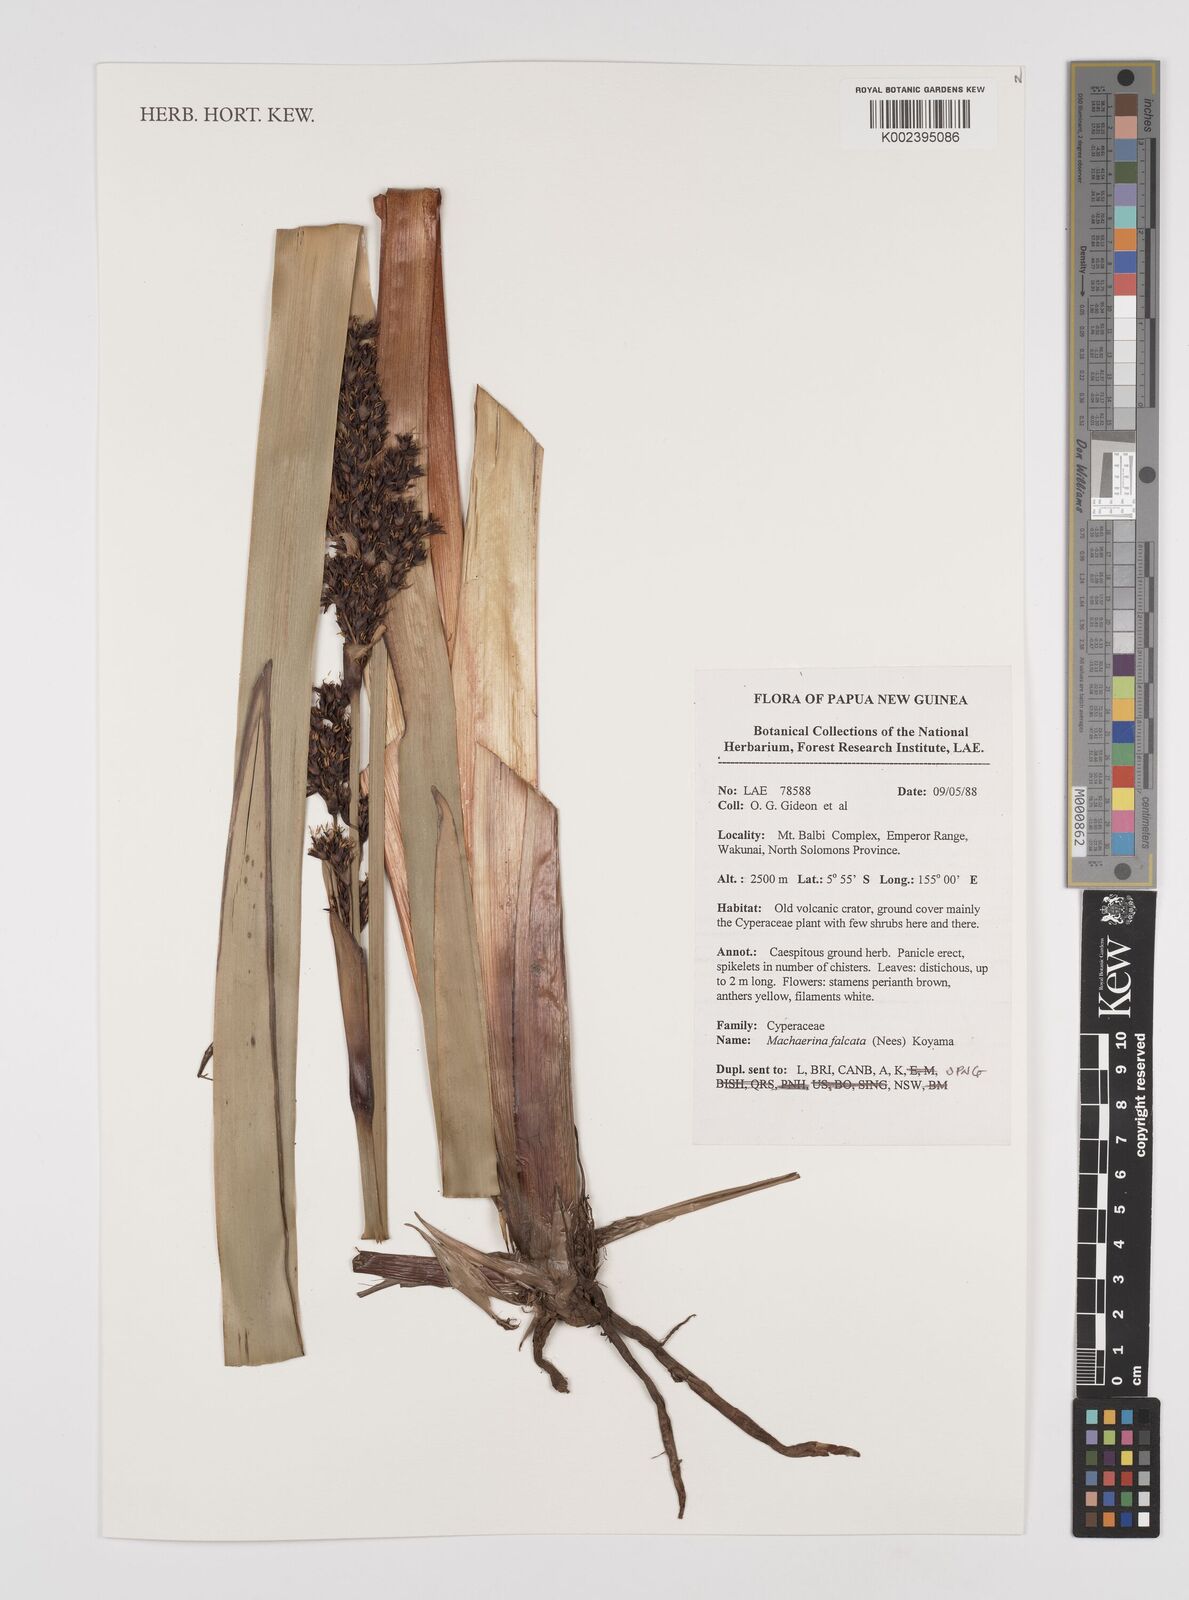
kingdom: Plantae
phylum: Tracheophyta
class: Liliopsida
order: Poales
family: Cyperaceae
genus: Machaerina
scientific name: Machaerina falcata
